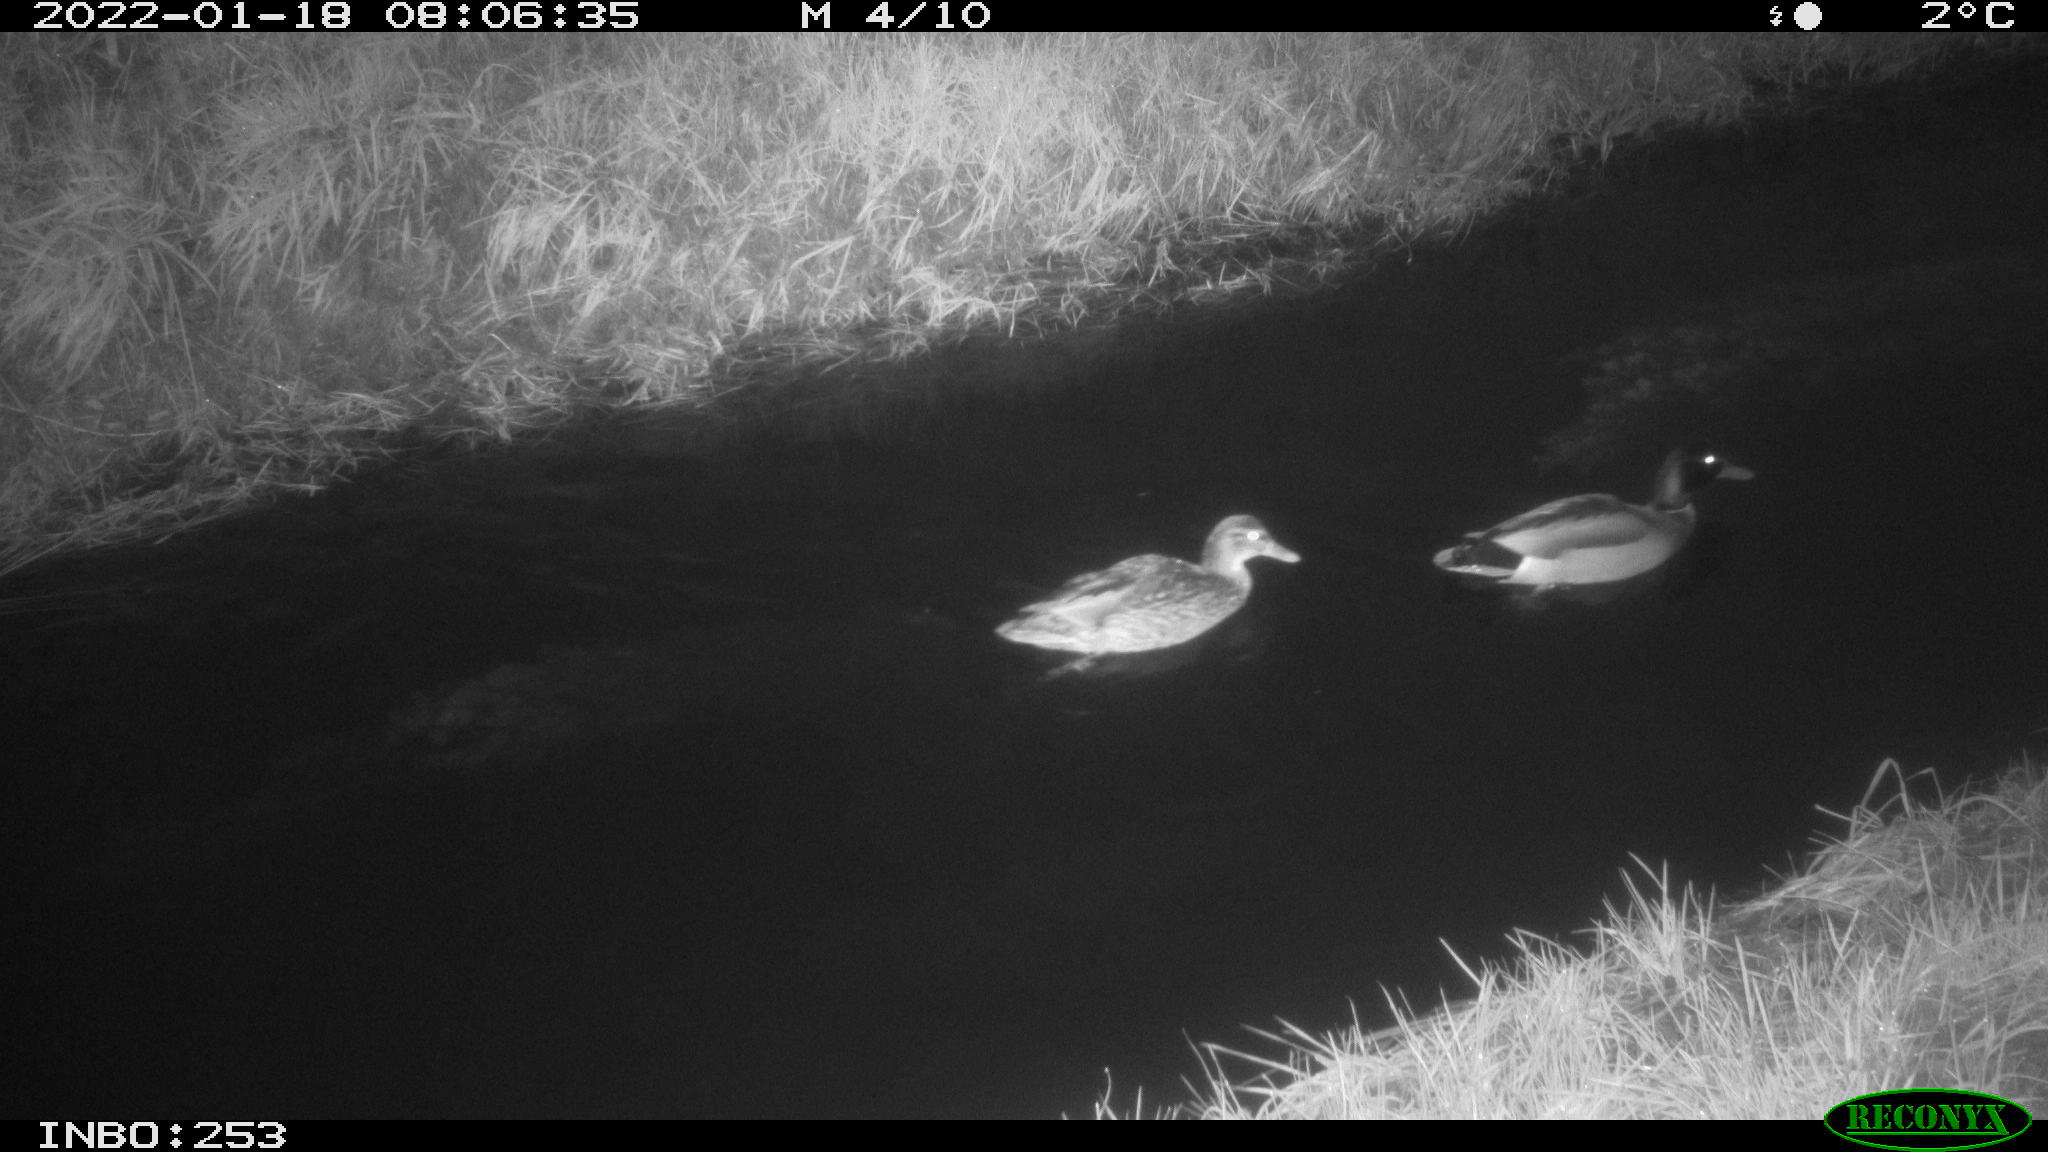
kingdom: Animalia
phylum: Chordata
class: Aves
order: Anseriformes
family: Anatidae
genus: Anas
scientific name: Anas
